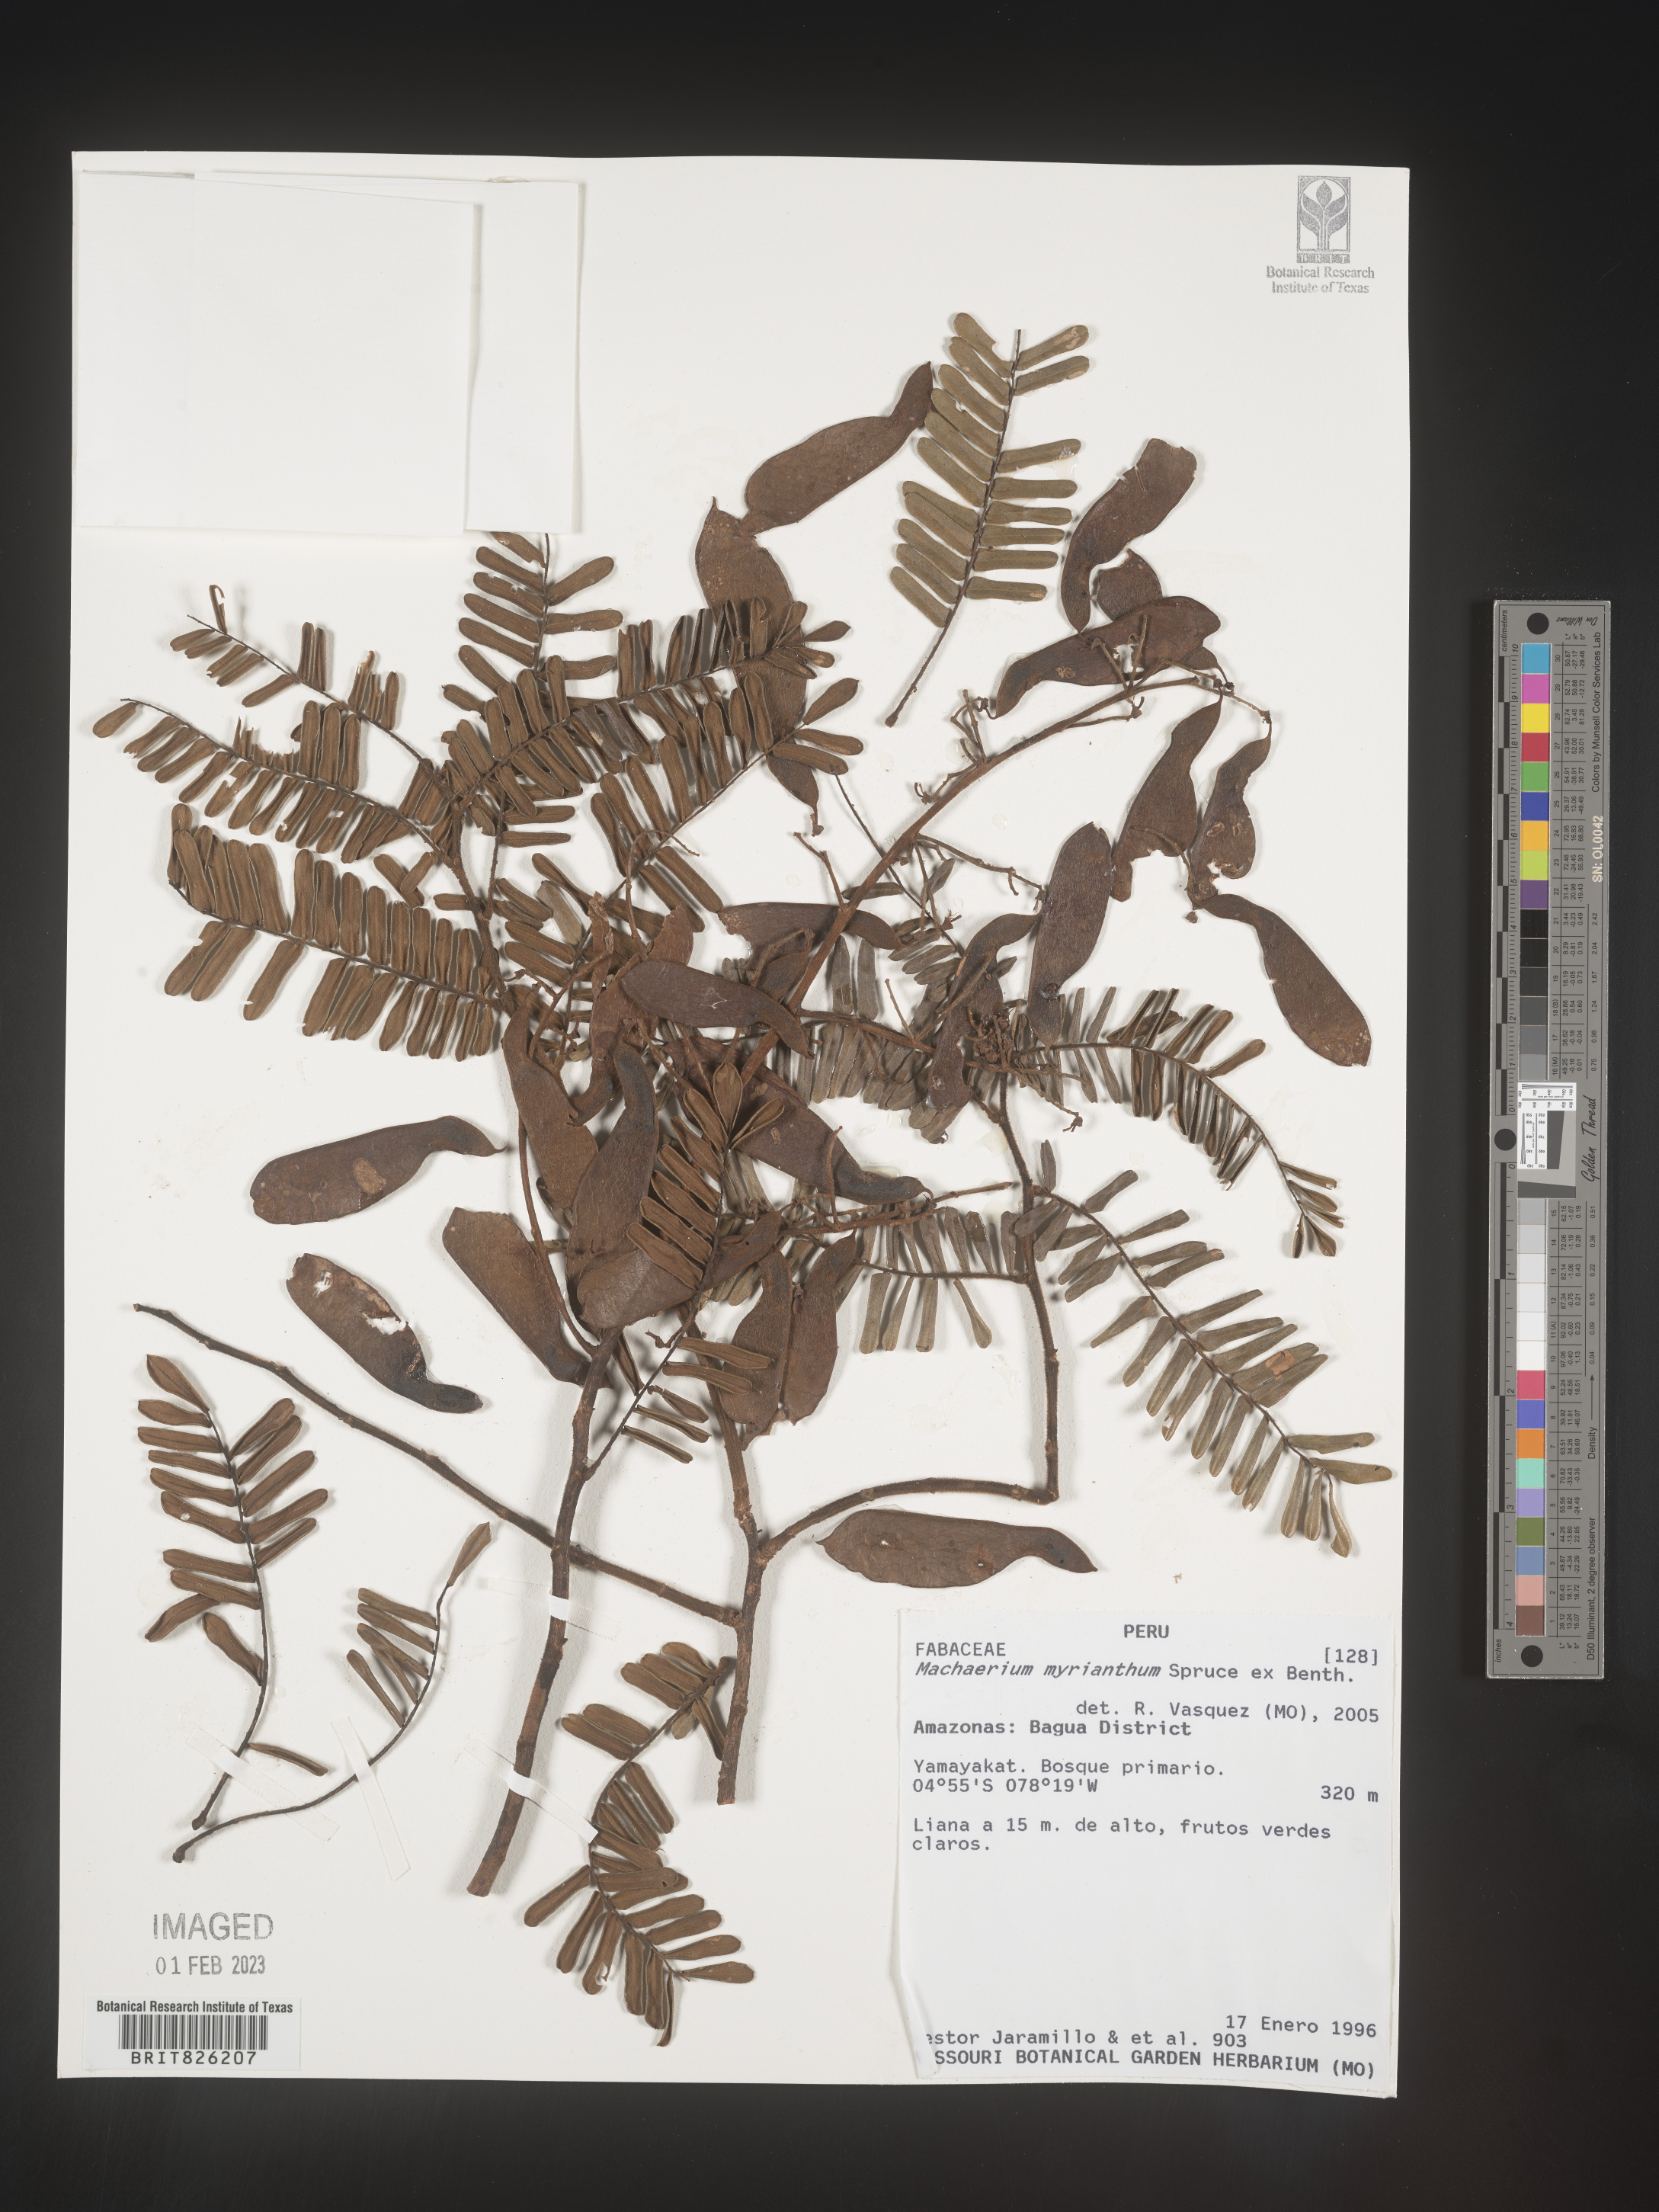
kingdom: Plantae
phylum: Tracheophyta
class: Magnoliopsida
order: Fabales
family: Fabaceae
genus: Machaerium
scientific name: Machaerium
